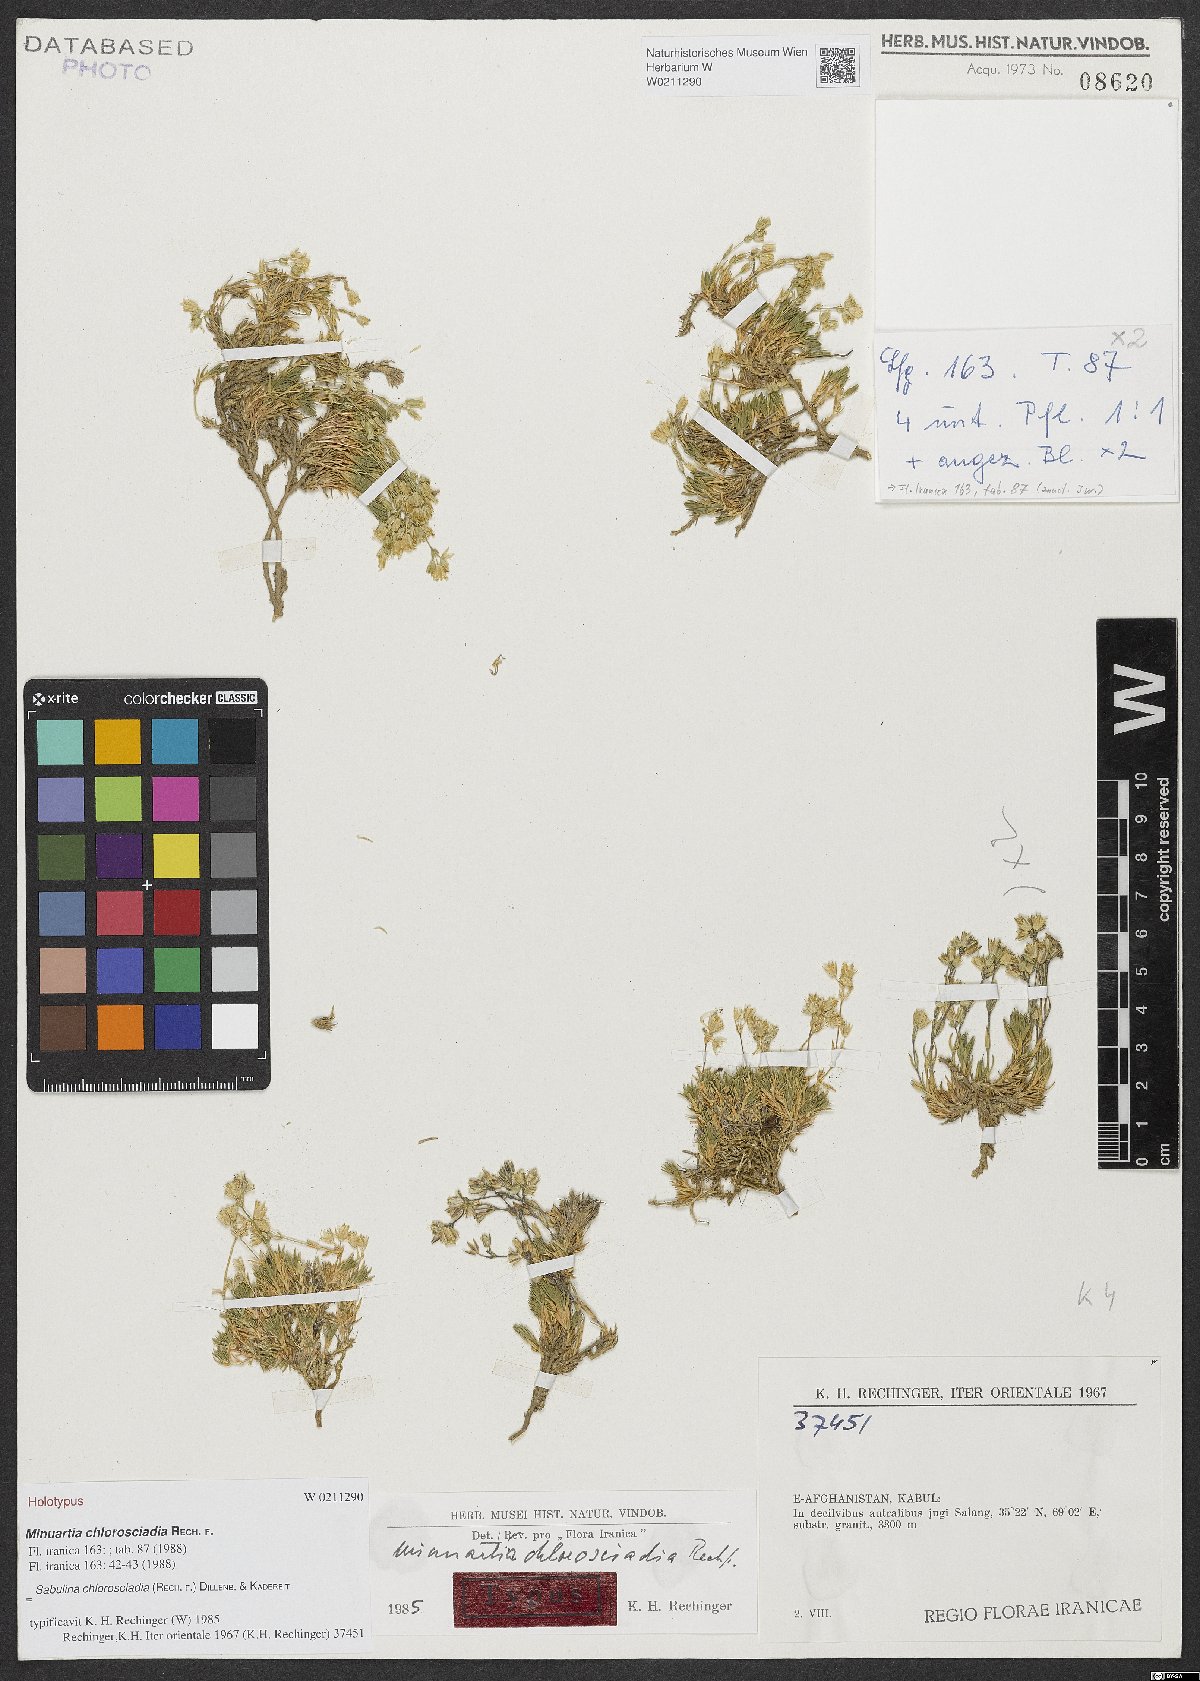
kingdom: Plantae
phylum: Tracheophyta
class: Magnoliopsida
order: Caryophyllales
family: Caryophyllaceae
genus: Sabulina
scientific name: Sabulina chlorosciadia
